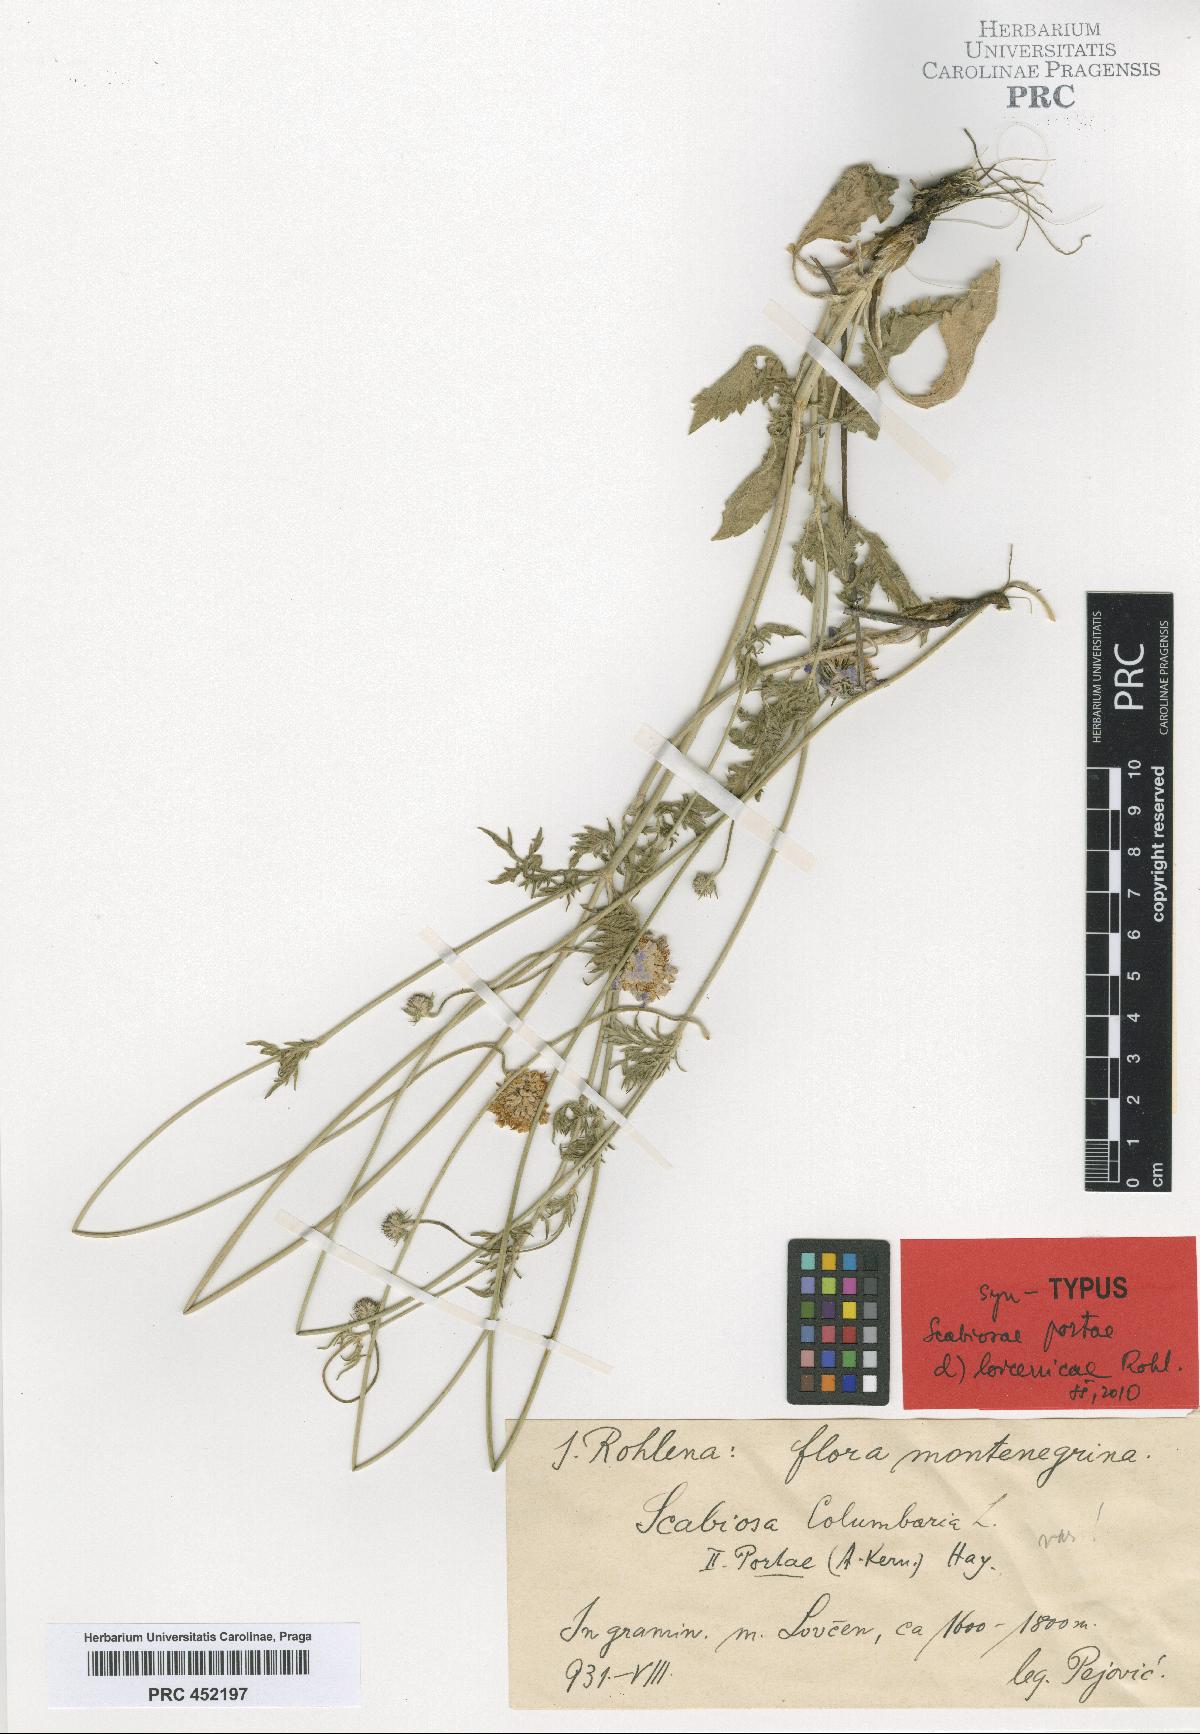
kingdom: Plantae
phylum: Tracheophyta
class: Magnoliopsida
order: Dipsacales
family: Caprifoliaceae
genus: Scabiosa
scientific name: Scabiosa taygetea
